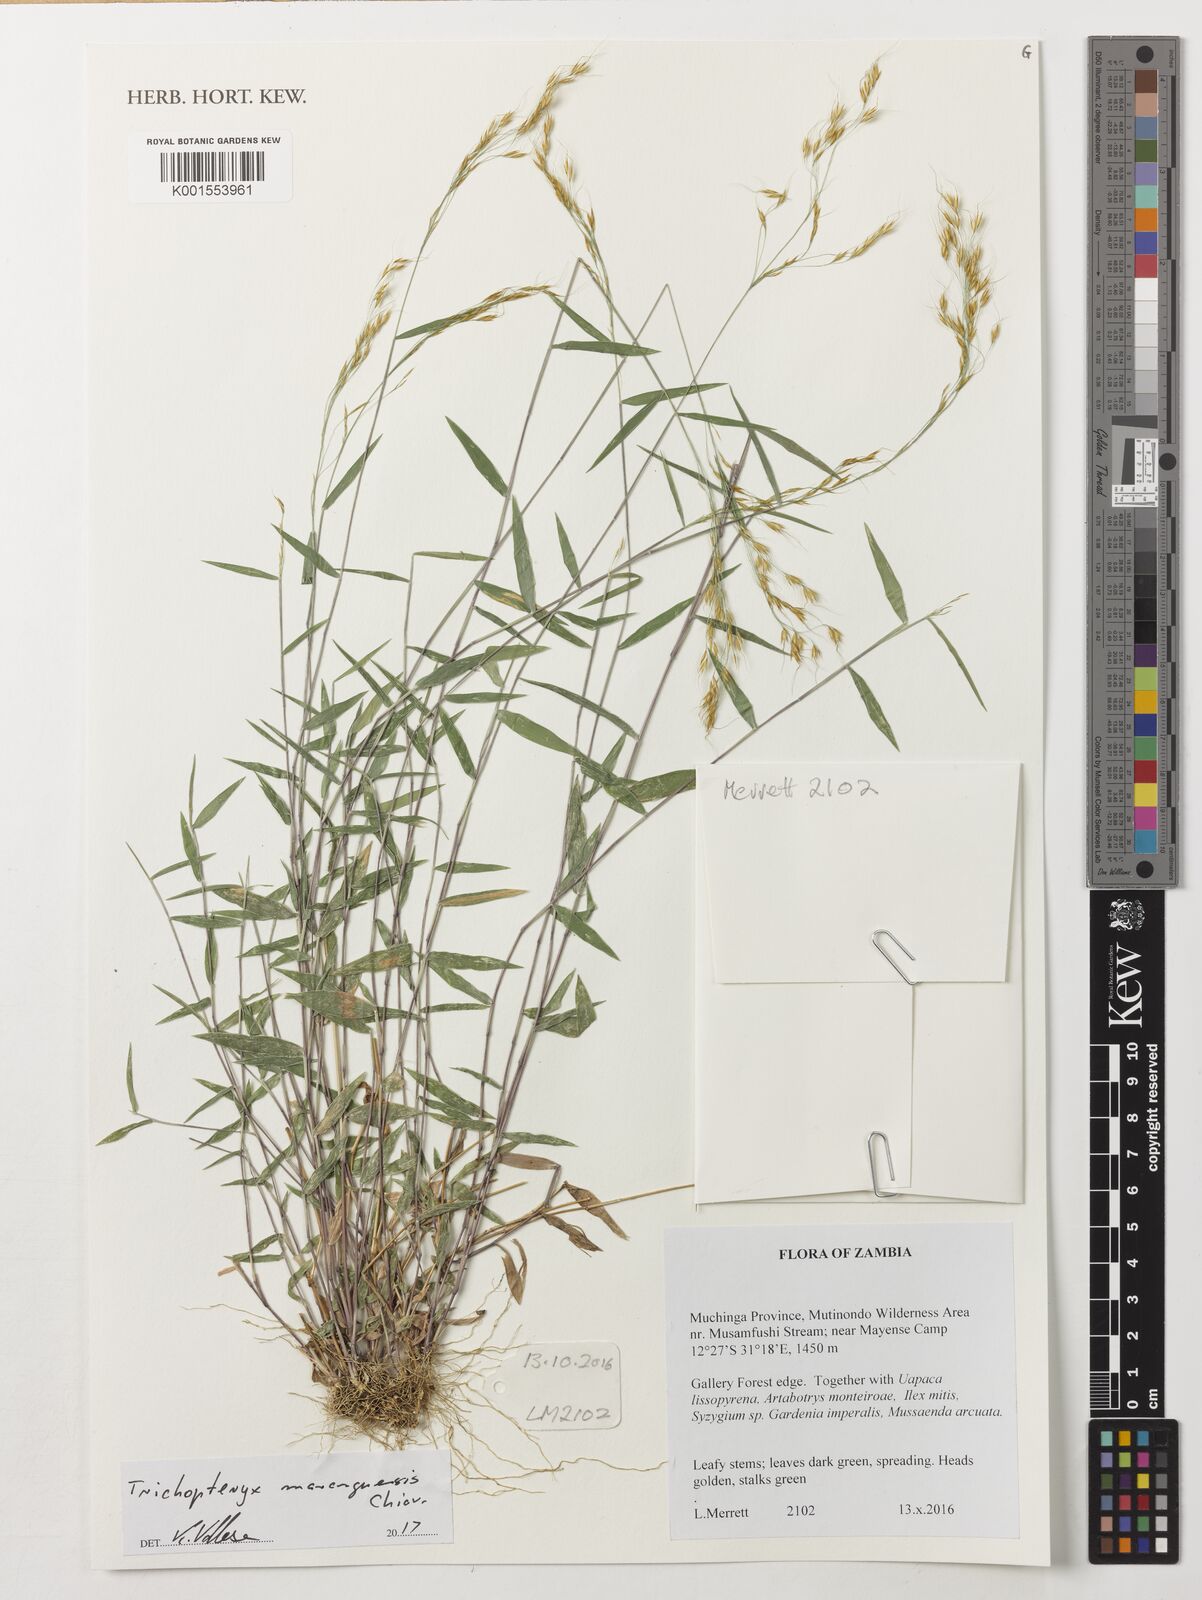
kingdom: Plantae
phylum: Tracheophyta
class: Liliopsida
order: Poales
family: Poaceae
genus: Trichopteryx
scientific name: Trichopteryx marungensis
